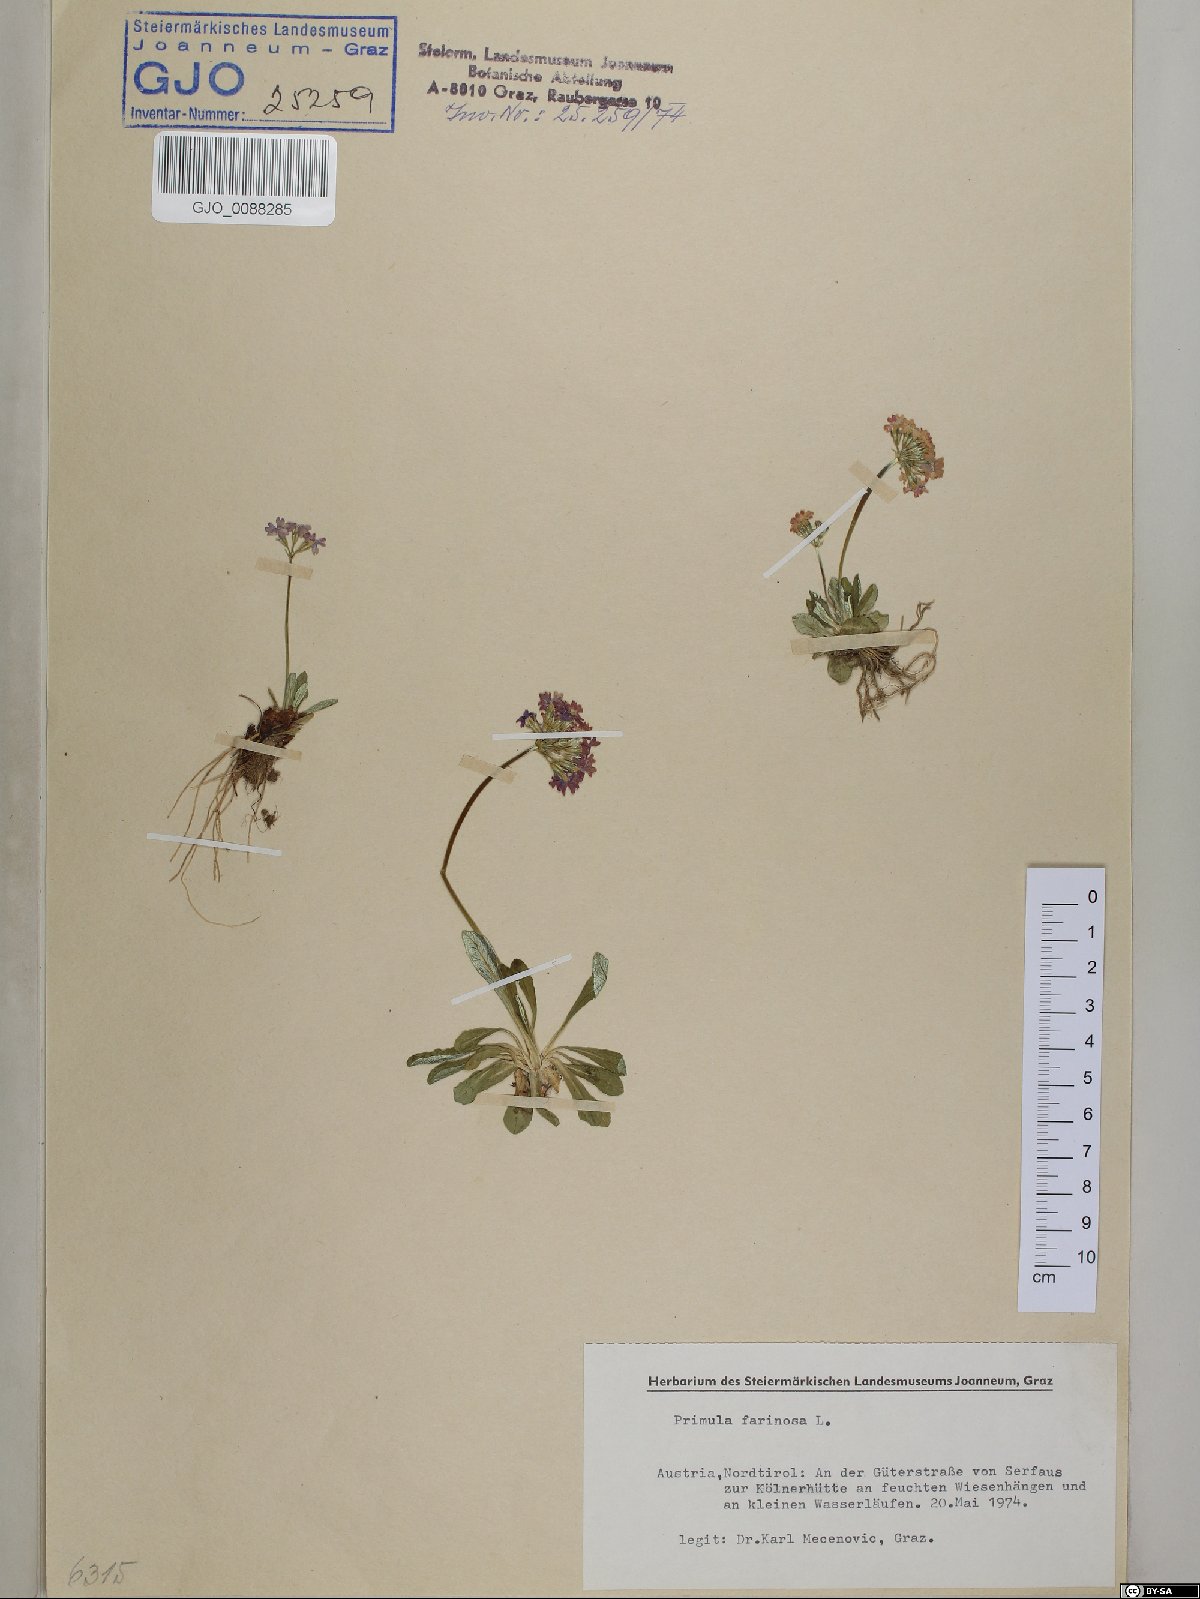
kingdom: Plantae
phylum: Tracheophyta
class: Magnoliopsida
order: Ericales
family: Primulaceae
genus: Primula
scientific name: Primula farinosa
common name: Bird's-eye primrose
